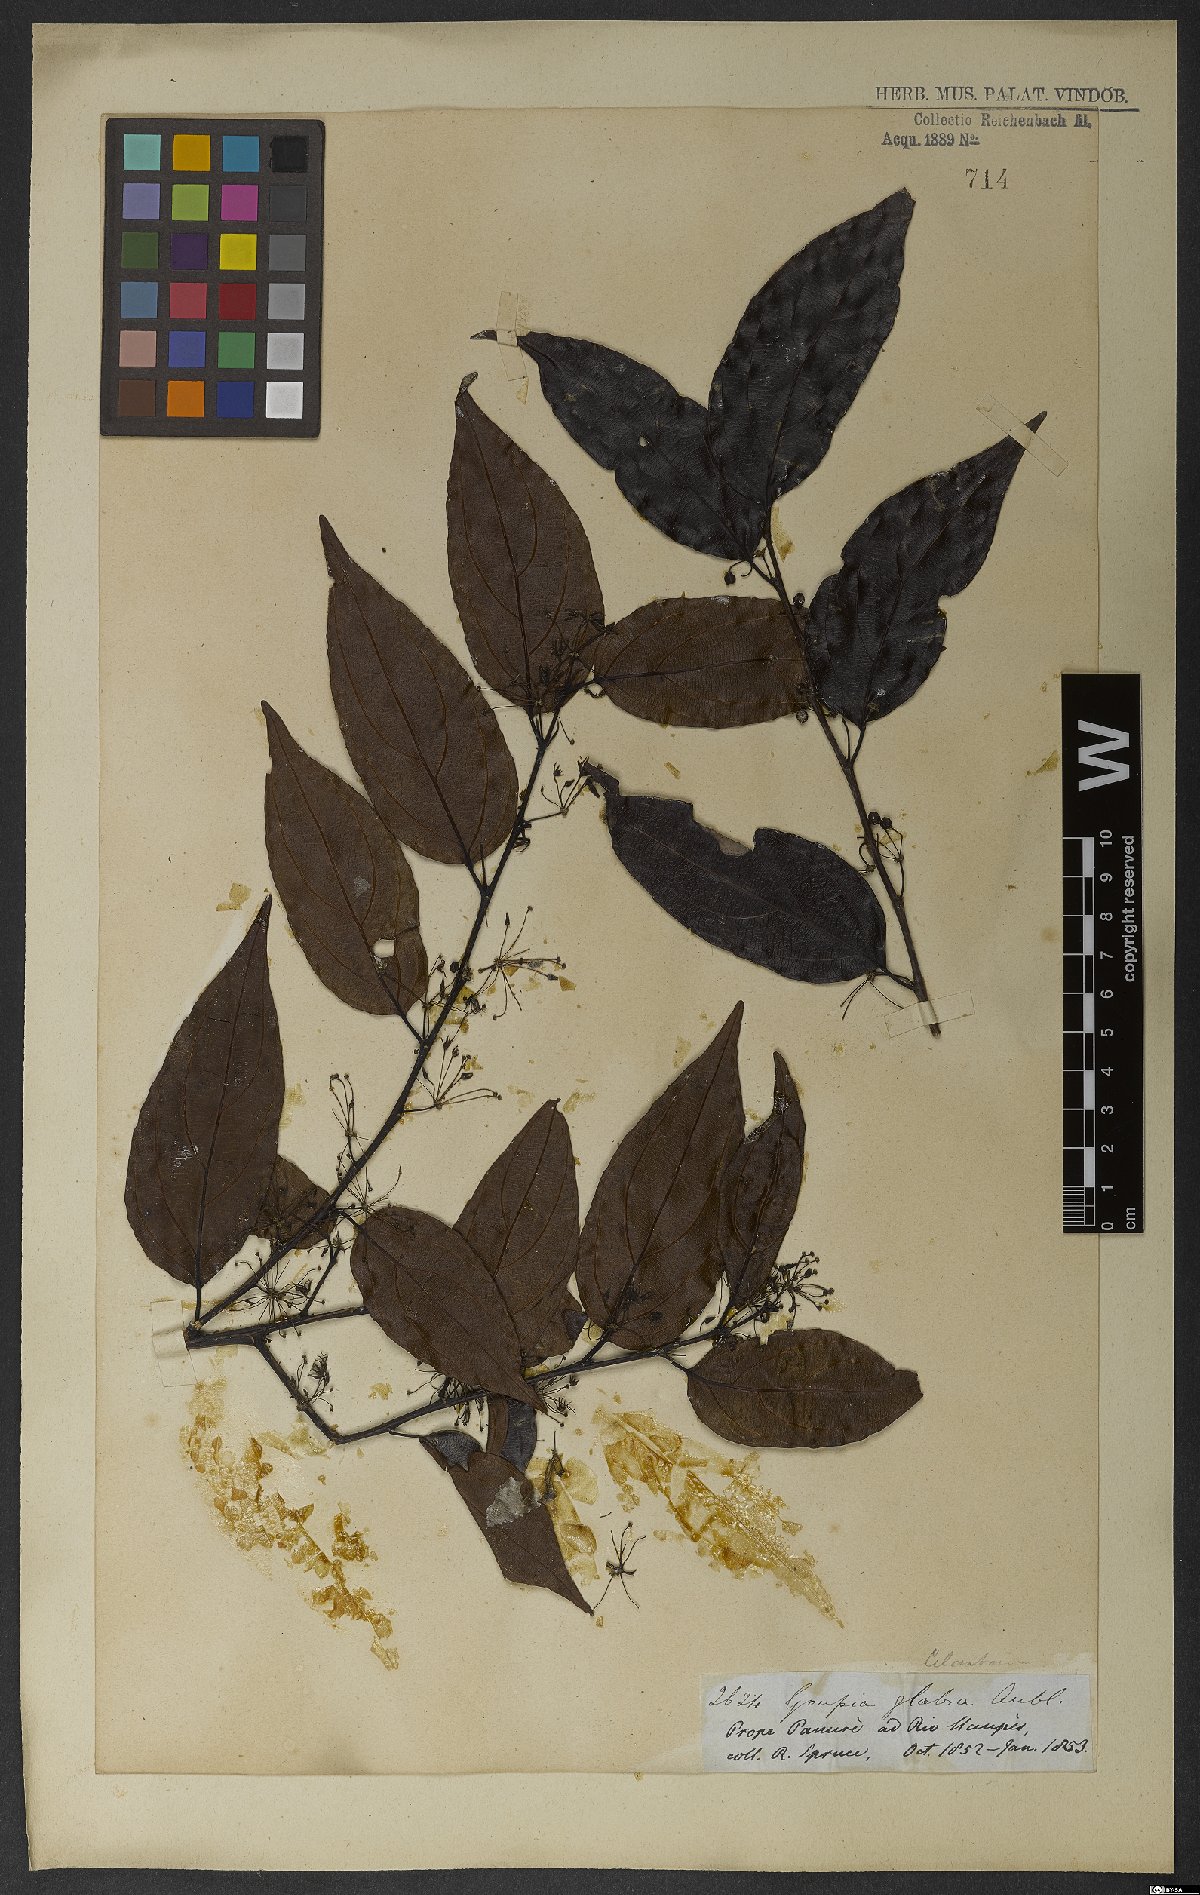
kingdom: Plantae
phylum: Tracheophyta
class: Magnoliopsida
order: Malpighiales
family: Goupiaceae
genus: Goupia
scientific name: Goupia glabra
